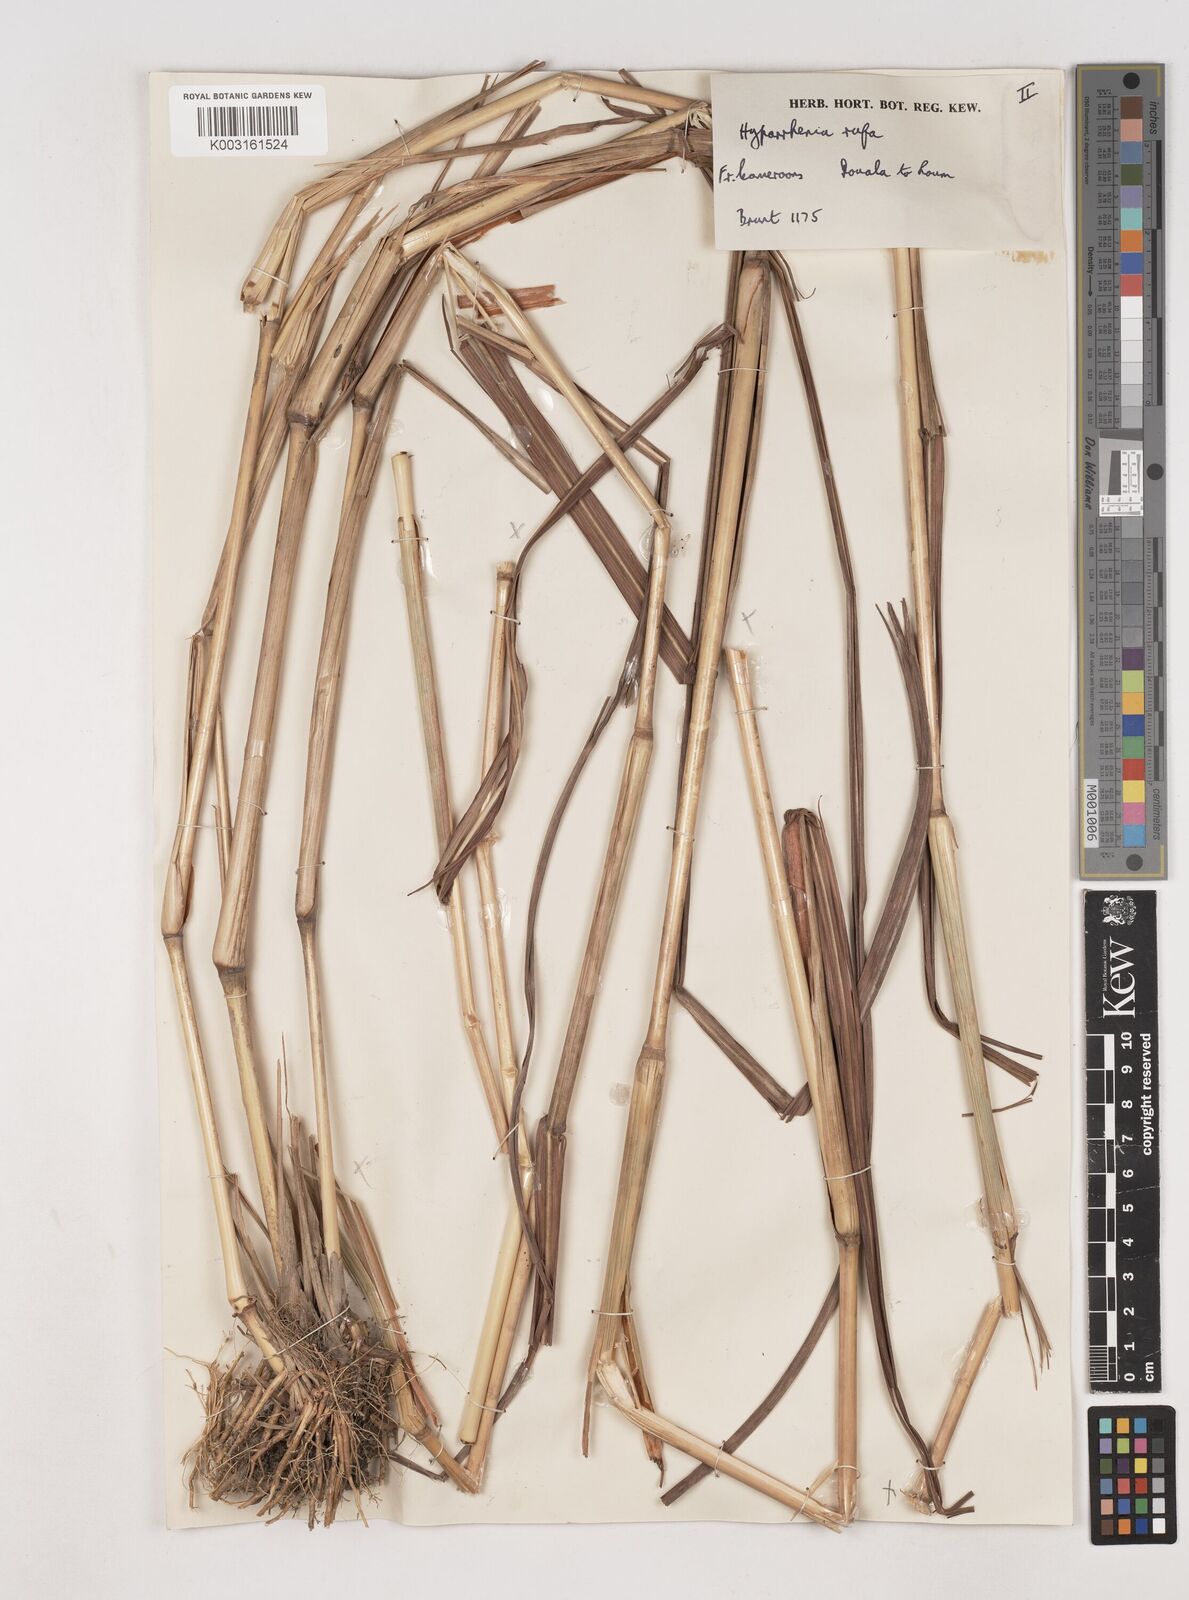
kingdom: Plantae
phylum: Tracheophyta
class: Liliopsida
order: Poales
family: Poaceae
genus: Hyparrhenia
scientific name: Hyparrhenia rufa
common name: Jaraguagrass
